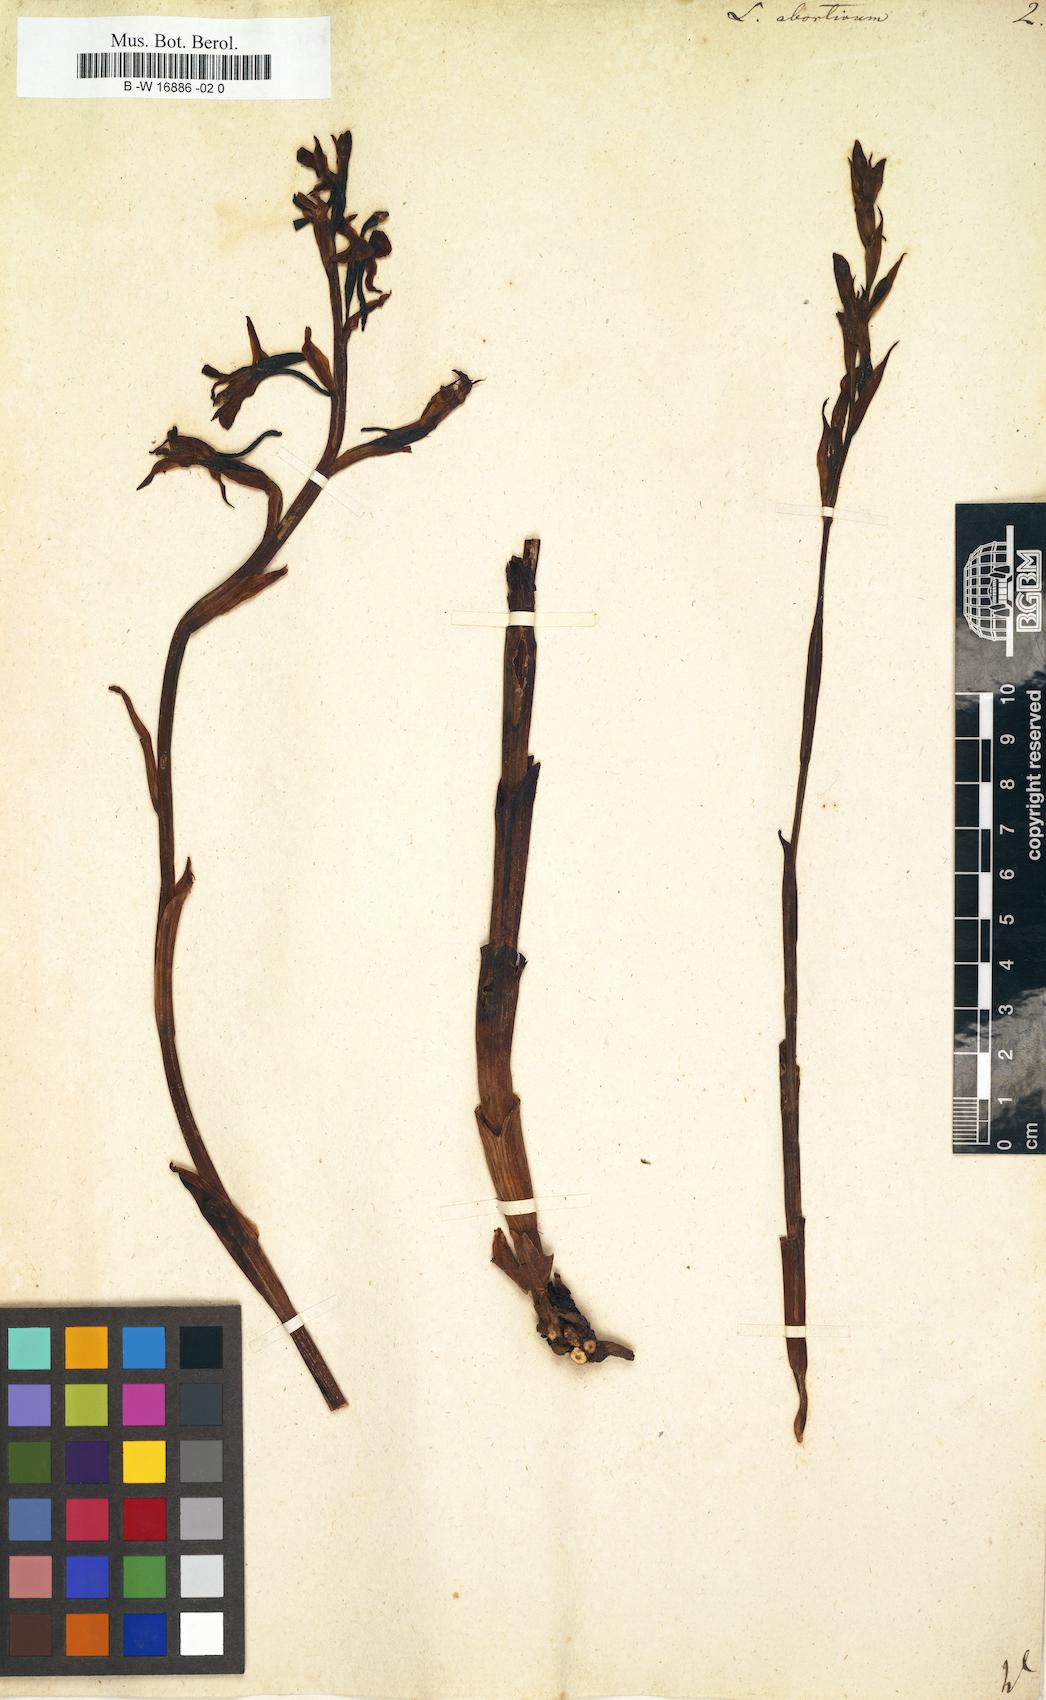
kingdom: Plantae
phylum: Tracheophyta
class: Liliopsida
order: Asparagales
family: Orchidaceae
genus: Limodorum
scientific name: Limodorum abortivum
